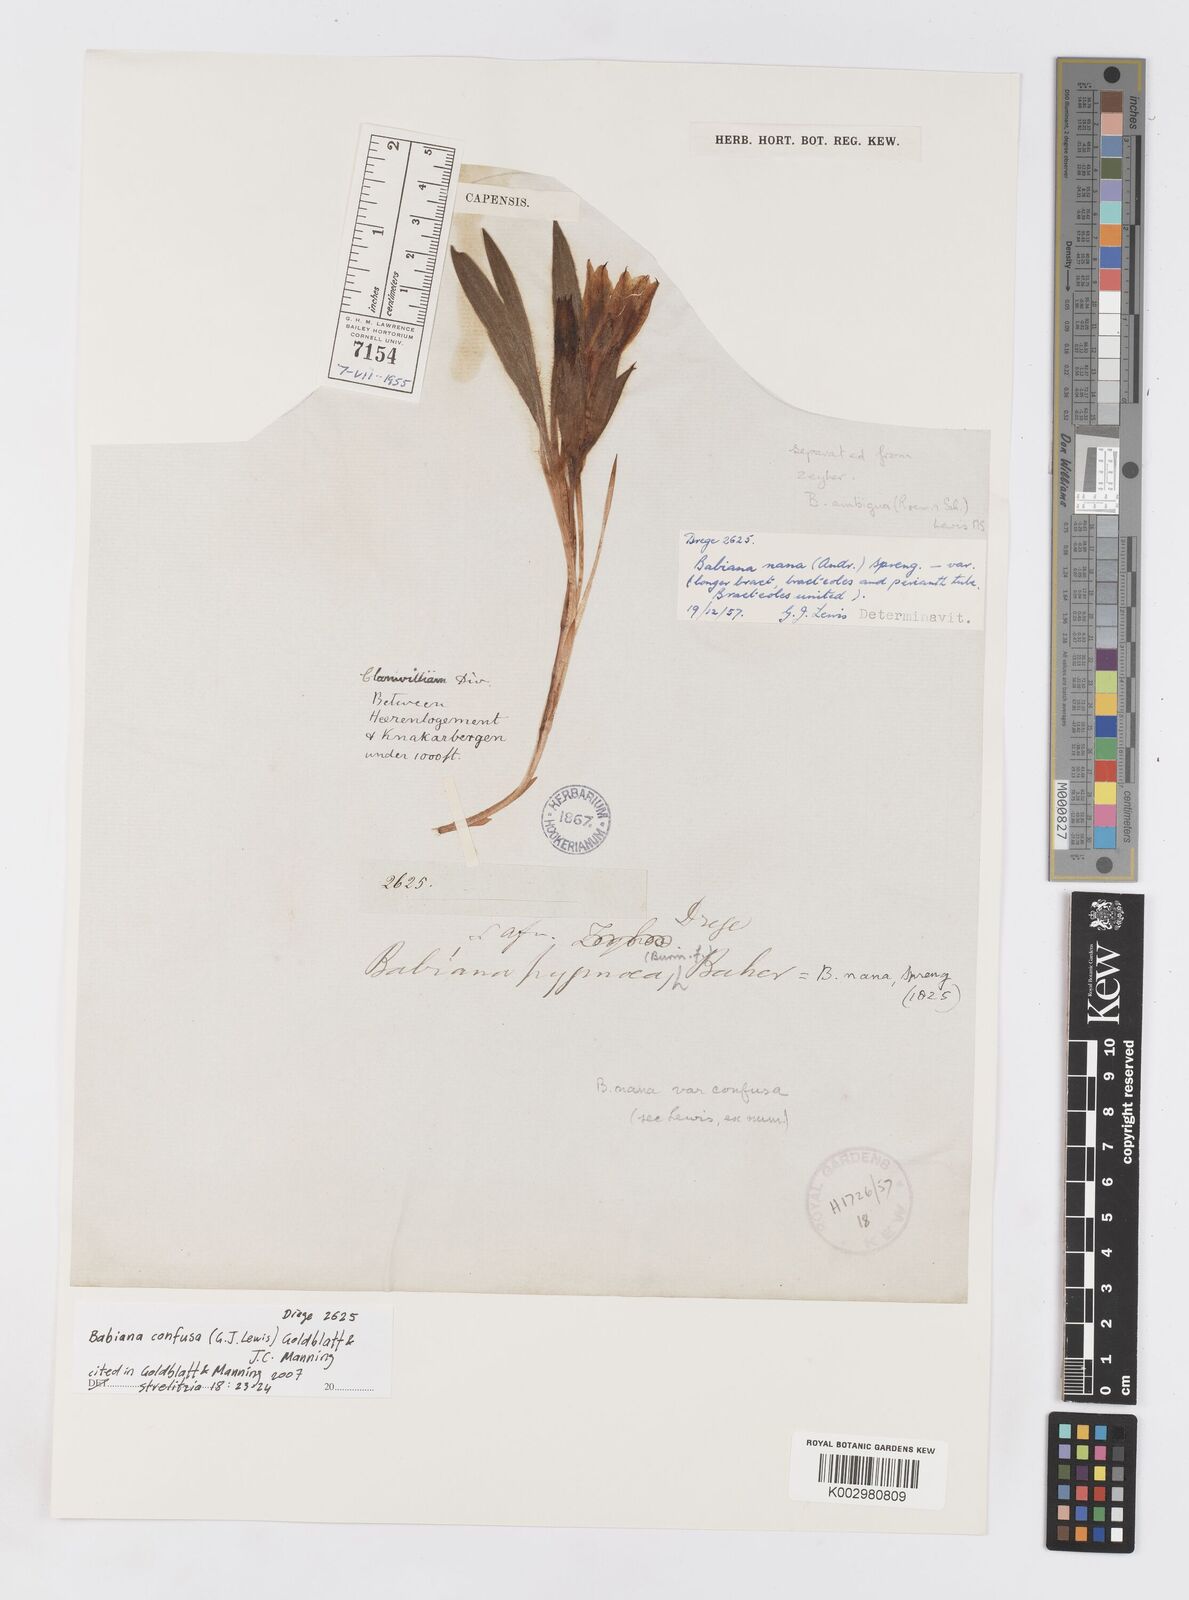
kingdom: Plantae
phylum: Tracheophyta
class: Liliopsida
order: Asparagales
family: Iridaceae
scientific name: Iridaceae
